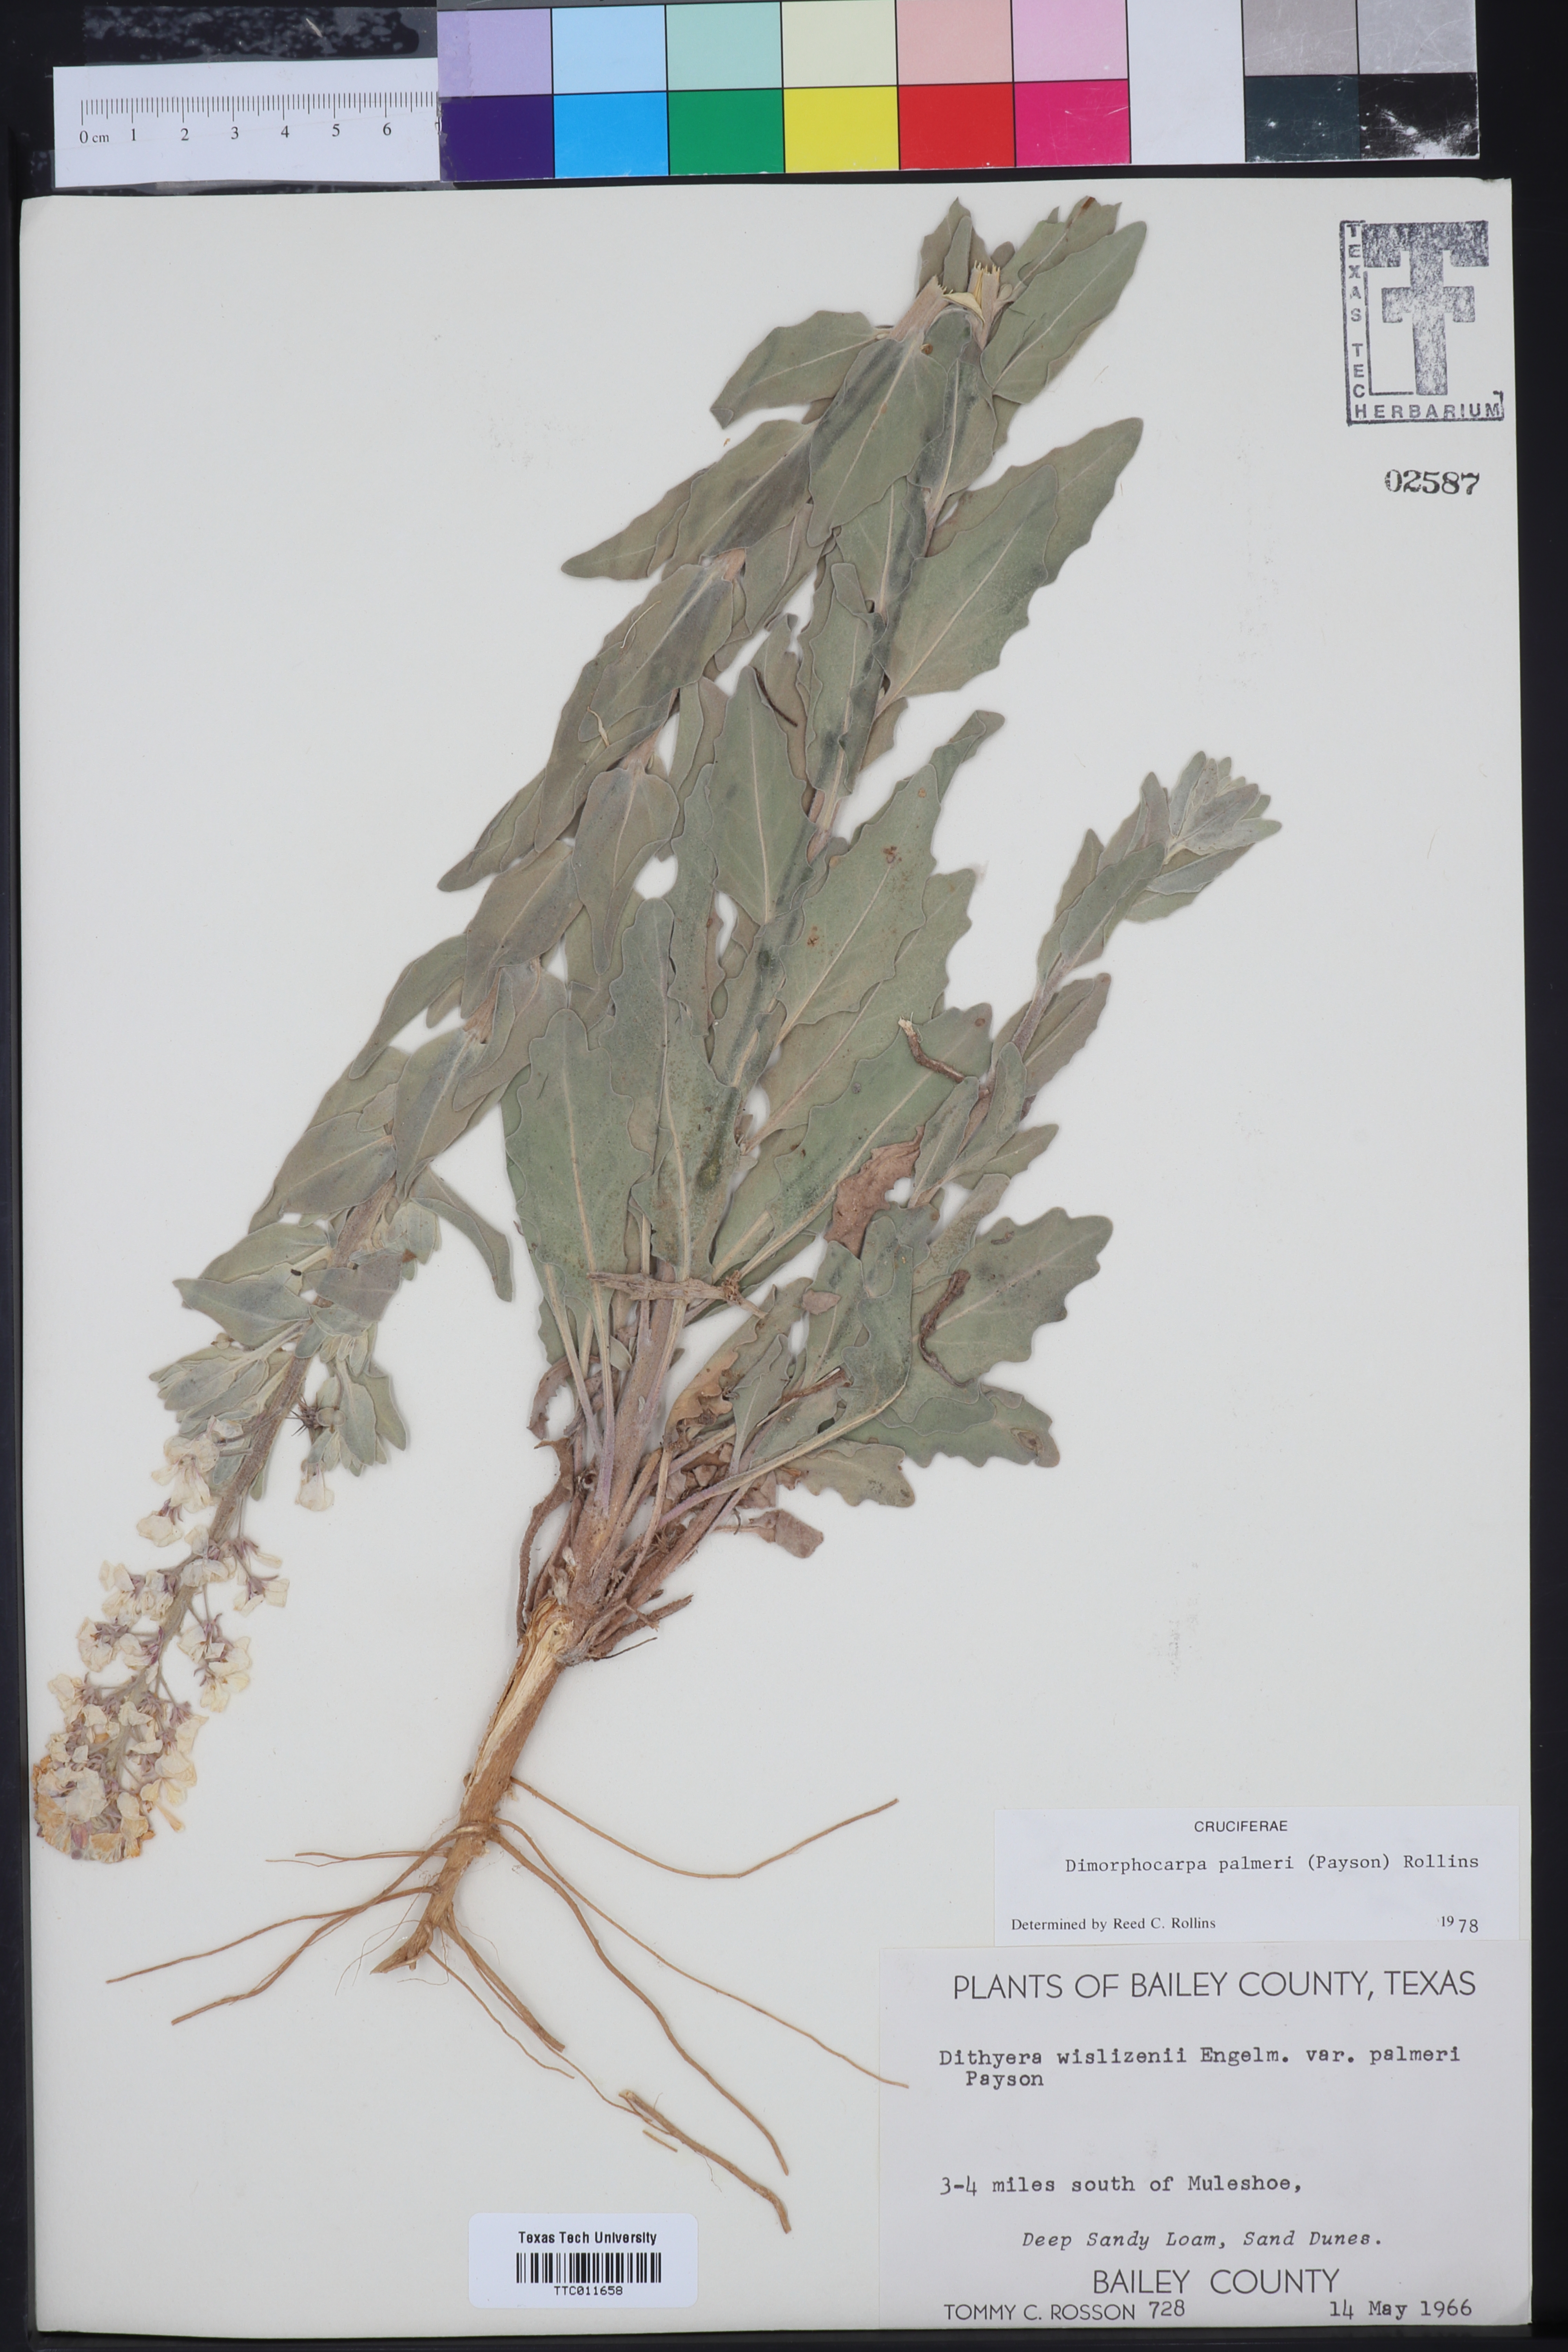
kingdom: Plantae
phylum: Tracheophyta
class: Magnoliopsida
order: Brassicales
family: Brassicaceae
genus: Dimorphocarpa
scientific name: Dimorphocarpa candicans
